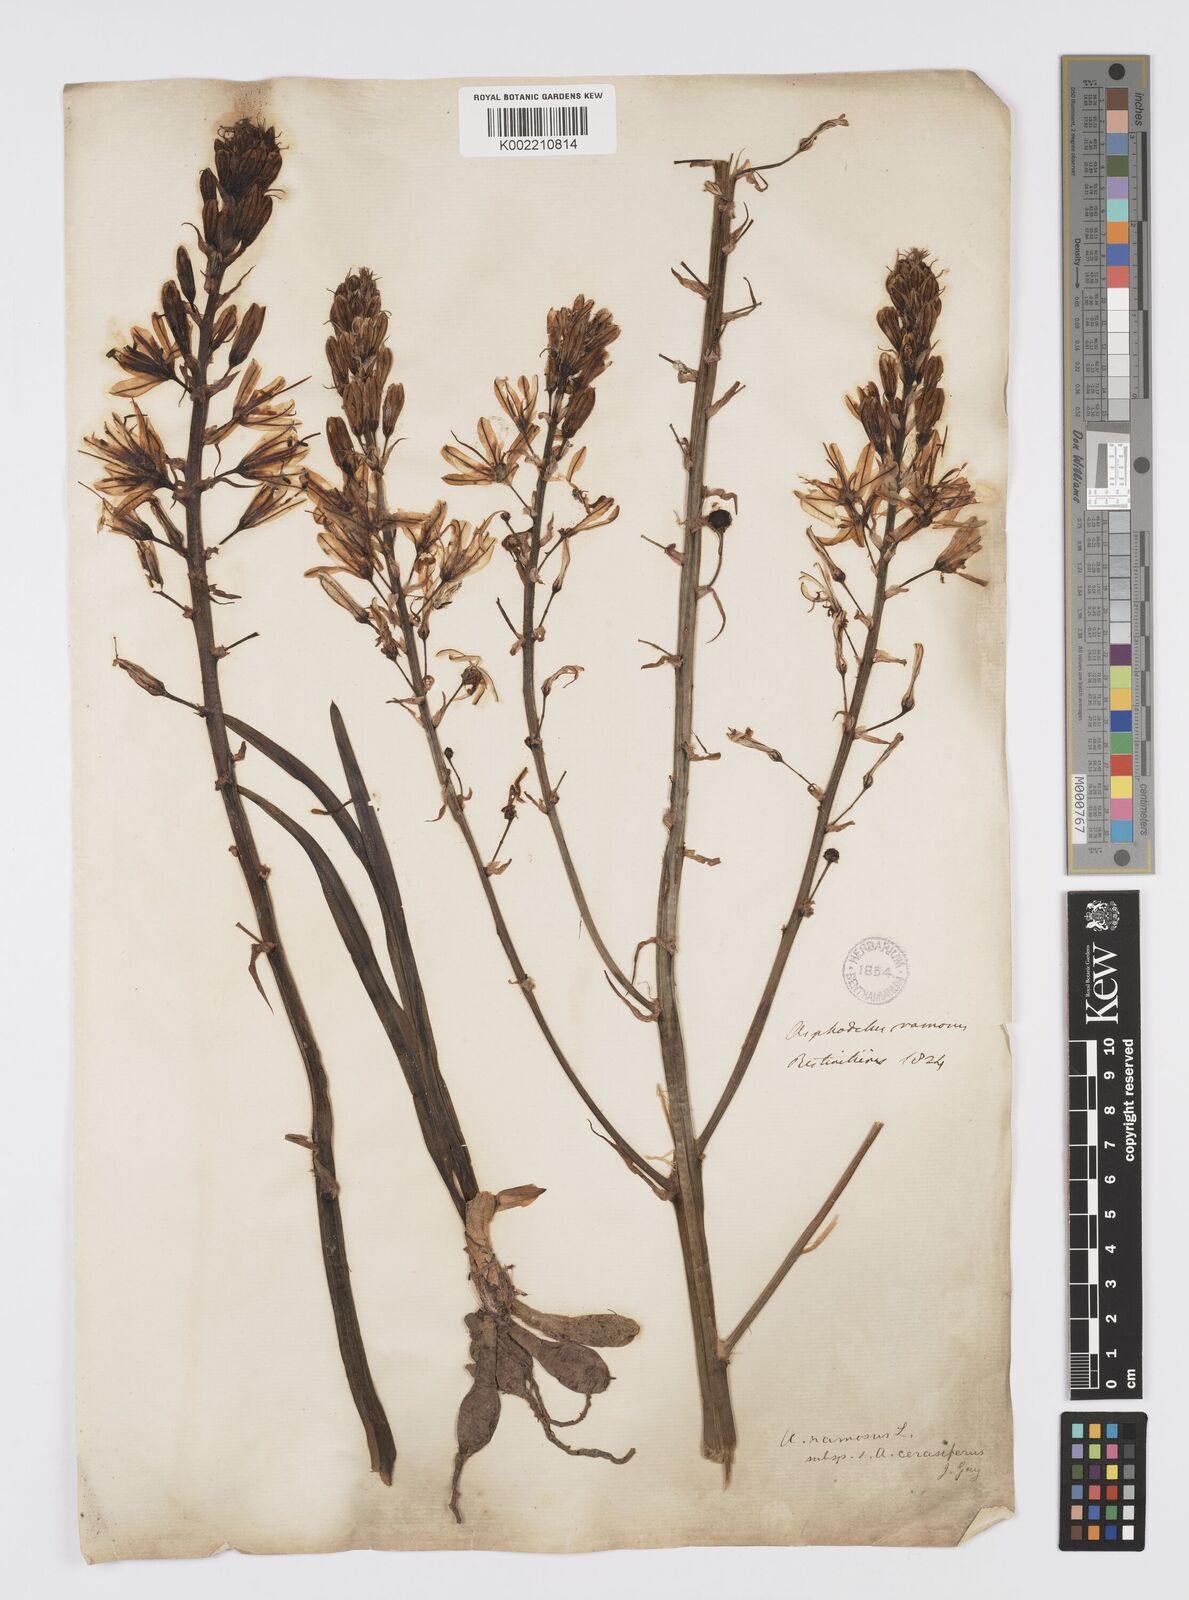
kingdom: Plantae
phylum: Tracheophyta
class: Liliopsida
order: Asparagales
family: Asphodelaceae
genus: Asphodelus
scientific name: Asphodelus cerasifer
